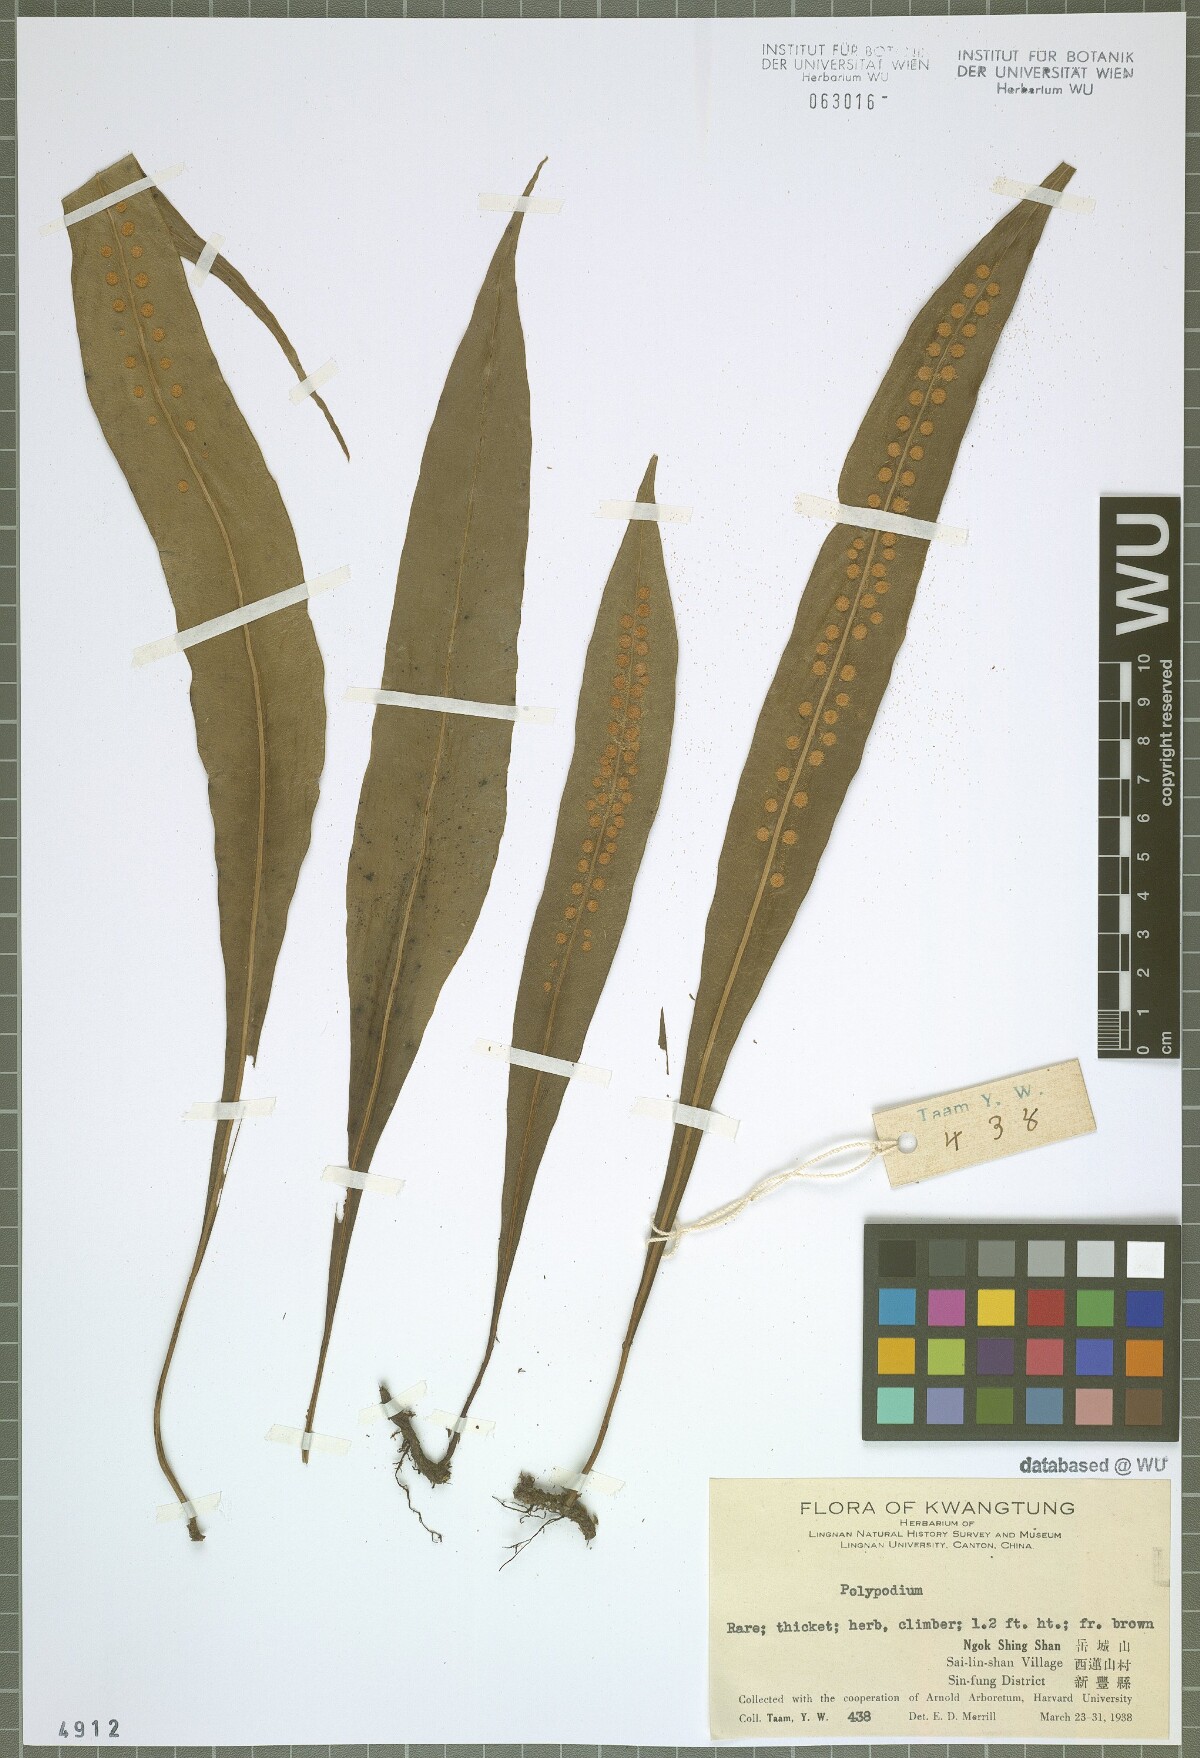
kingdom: Plantae
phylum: Tracheophyta
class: Polypodiopsida
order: Polypodiales
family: Polypodiaceae
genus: Polypodium
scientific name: Polypodium
